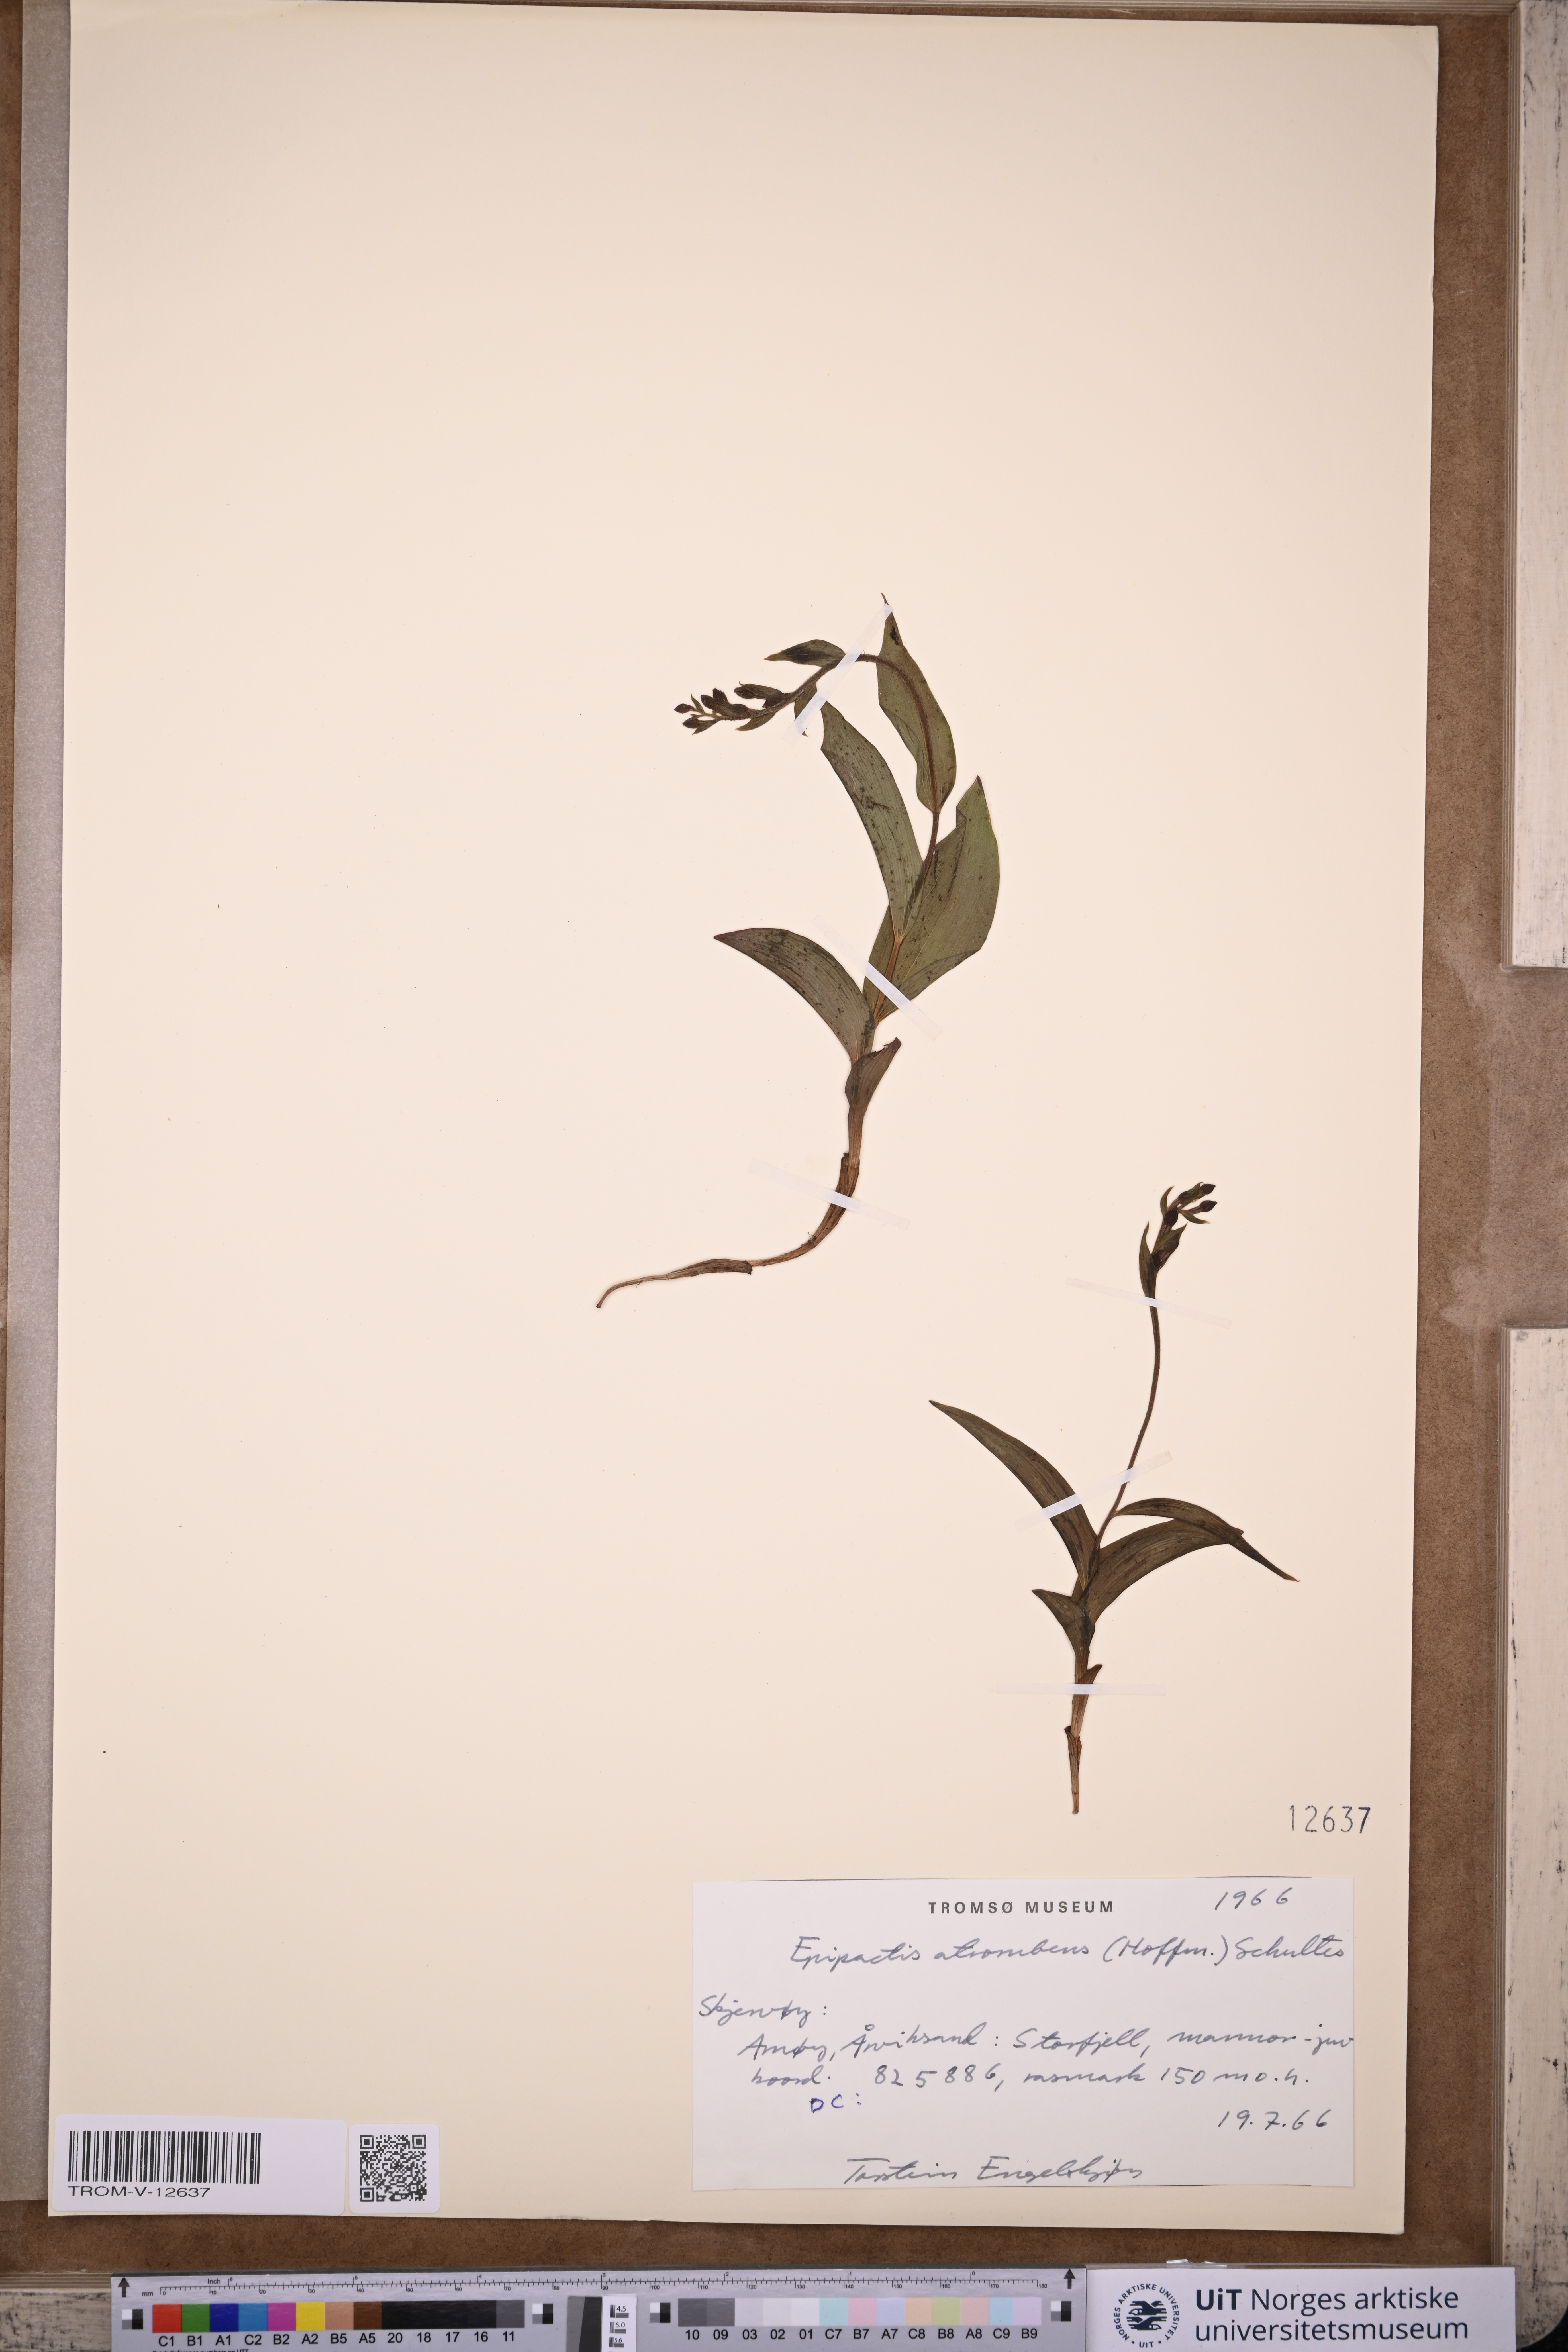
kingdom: Plantae
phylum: Tracheophyta
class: Liliopsida
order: Asparagales
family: Orchidaceae
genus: Epipactis
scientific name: Epipactis atrorubens
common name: Dark-red helleborine
